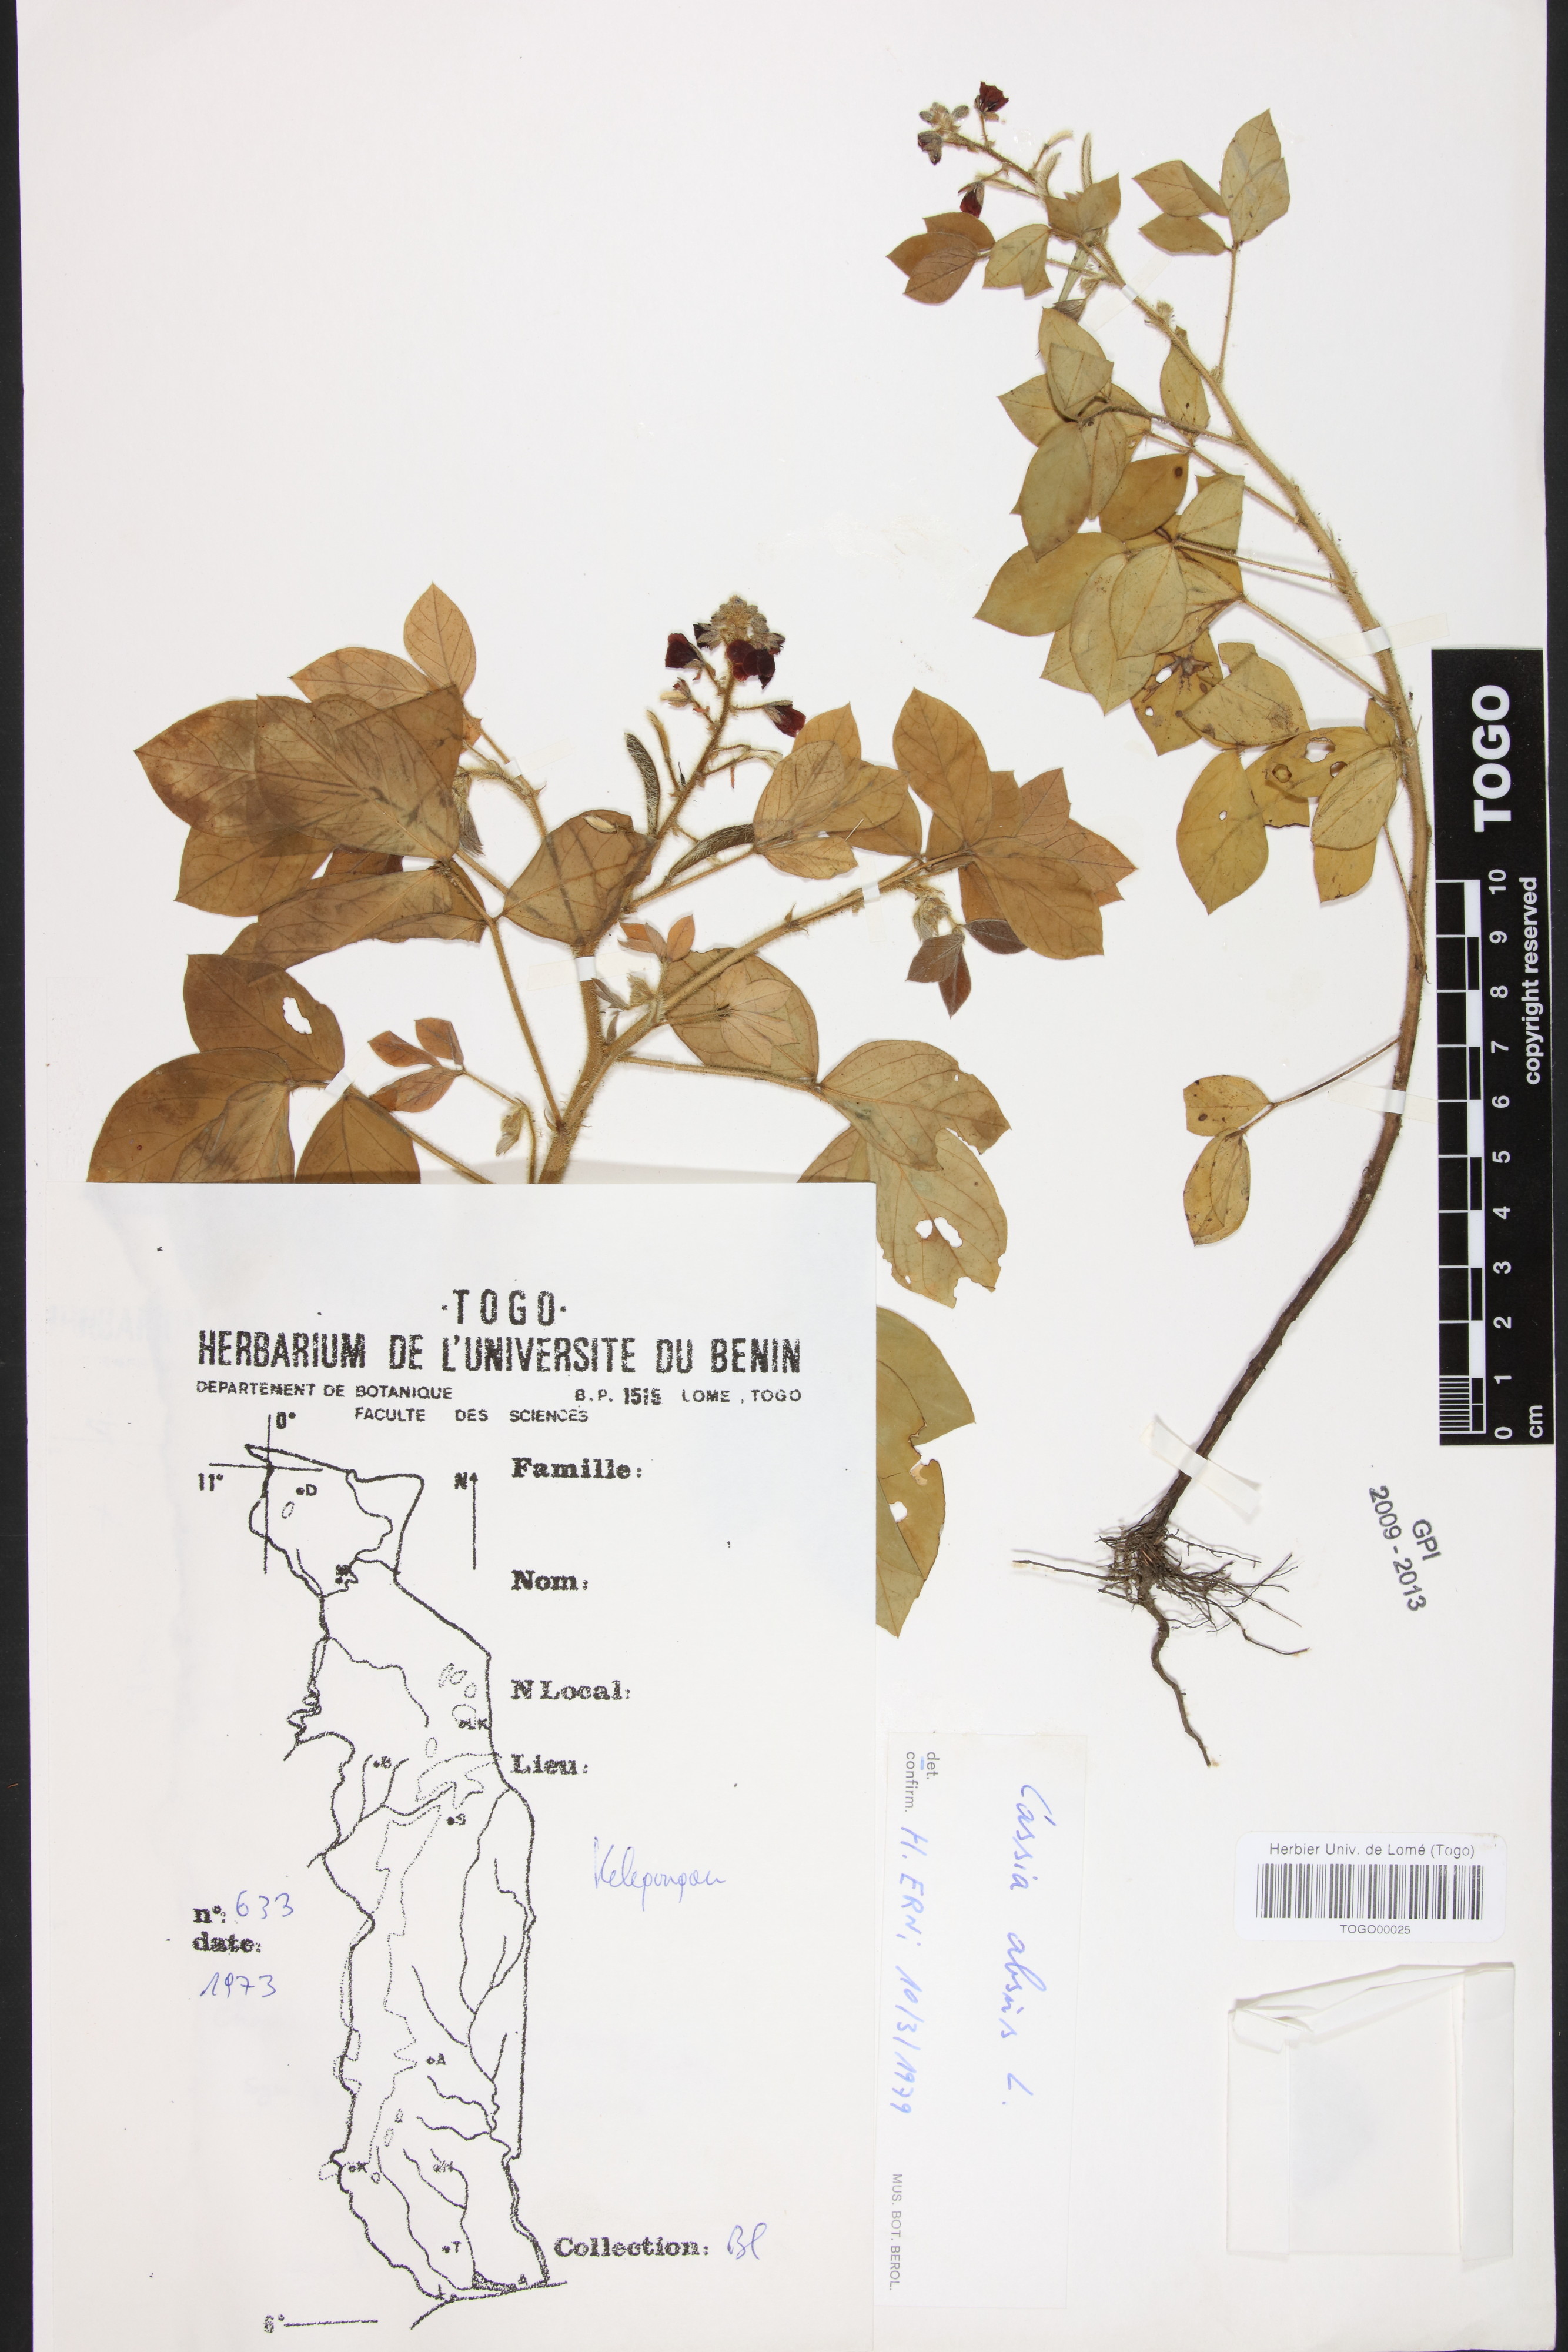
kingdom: Plantae
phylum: Tracheophyta
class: Magnoliopsida
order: Fabales
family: Fabaceae
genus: Chamaecrista
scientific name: Chamaecrista absus
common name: Tropical sensitive pea
